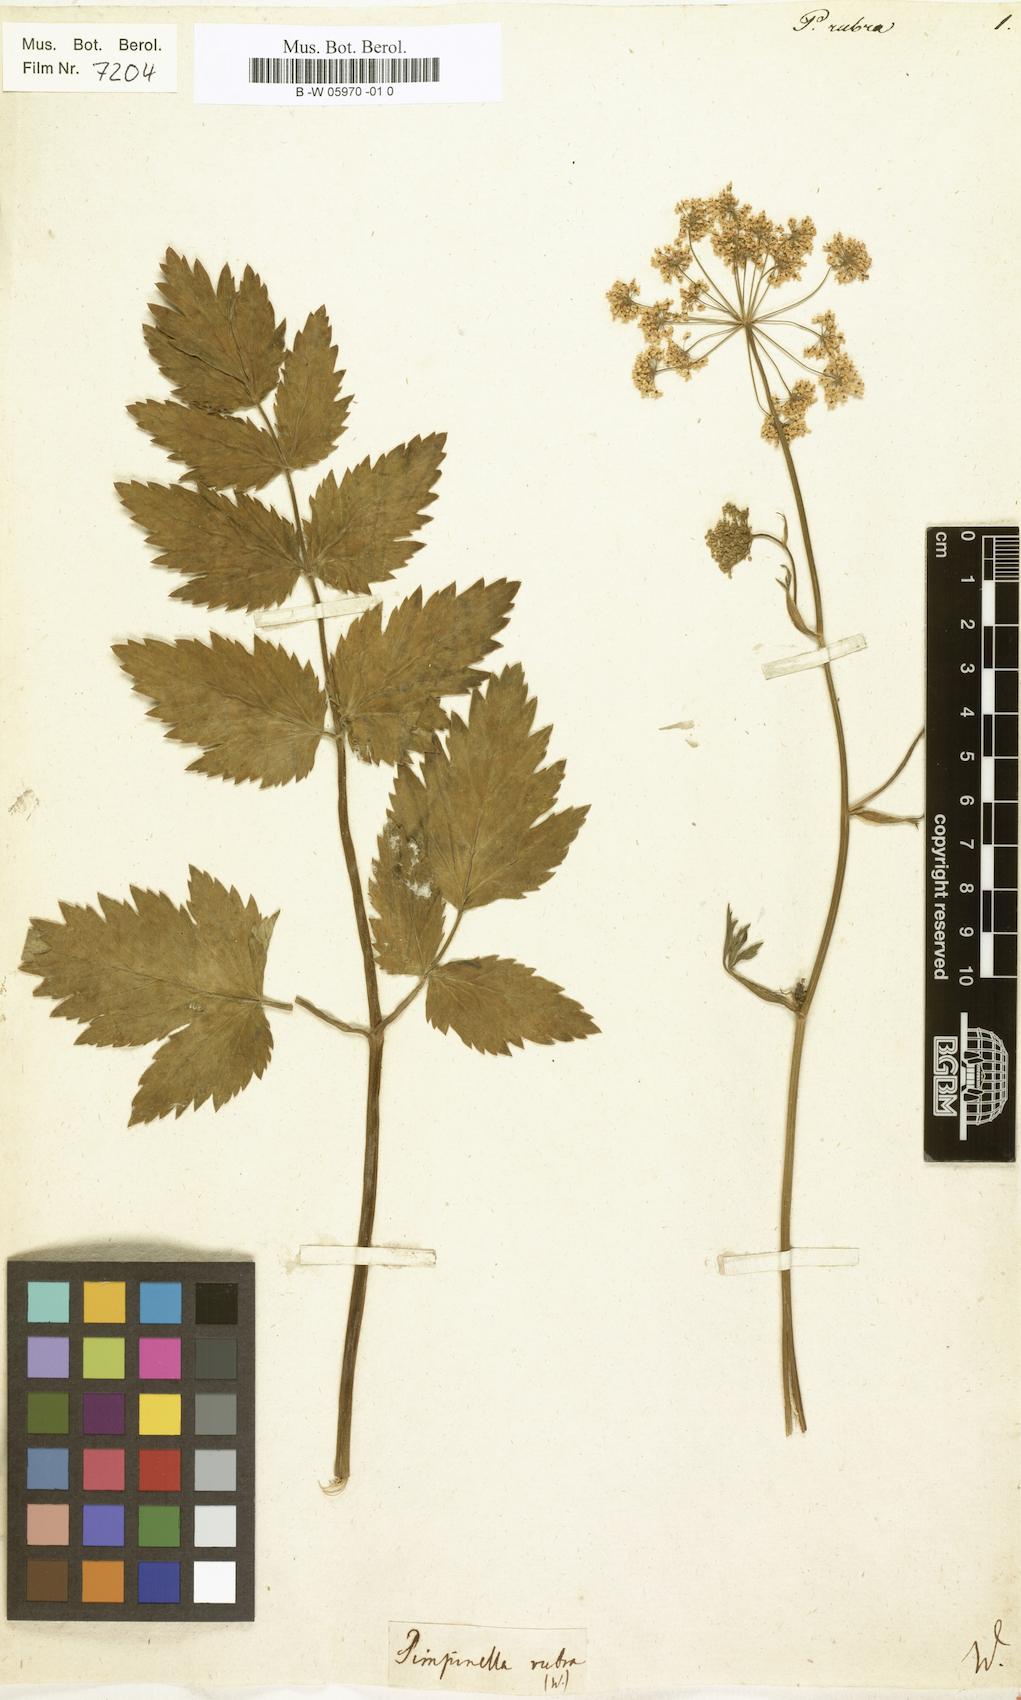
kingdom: Plantae
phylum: Tracheophyta
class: Magnoliopsida
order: Apiales
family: Apiaceae
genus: Pimpinella
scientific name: Pimpinella major
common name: Greater burnet-saxifrage
